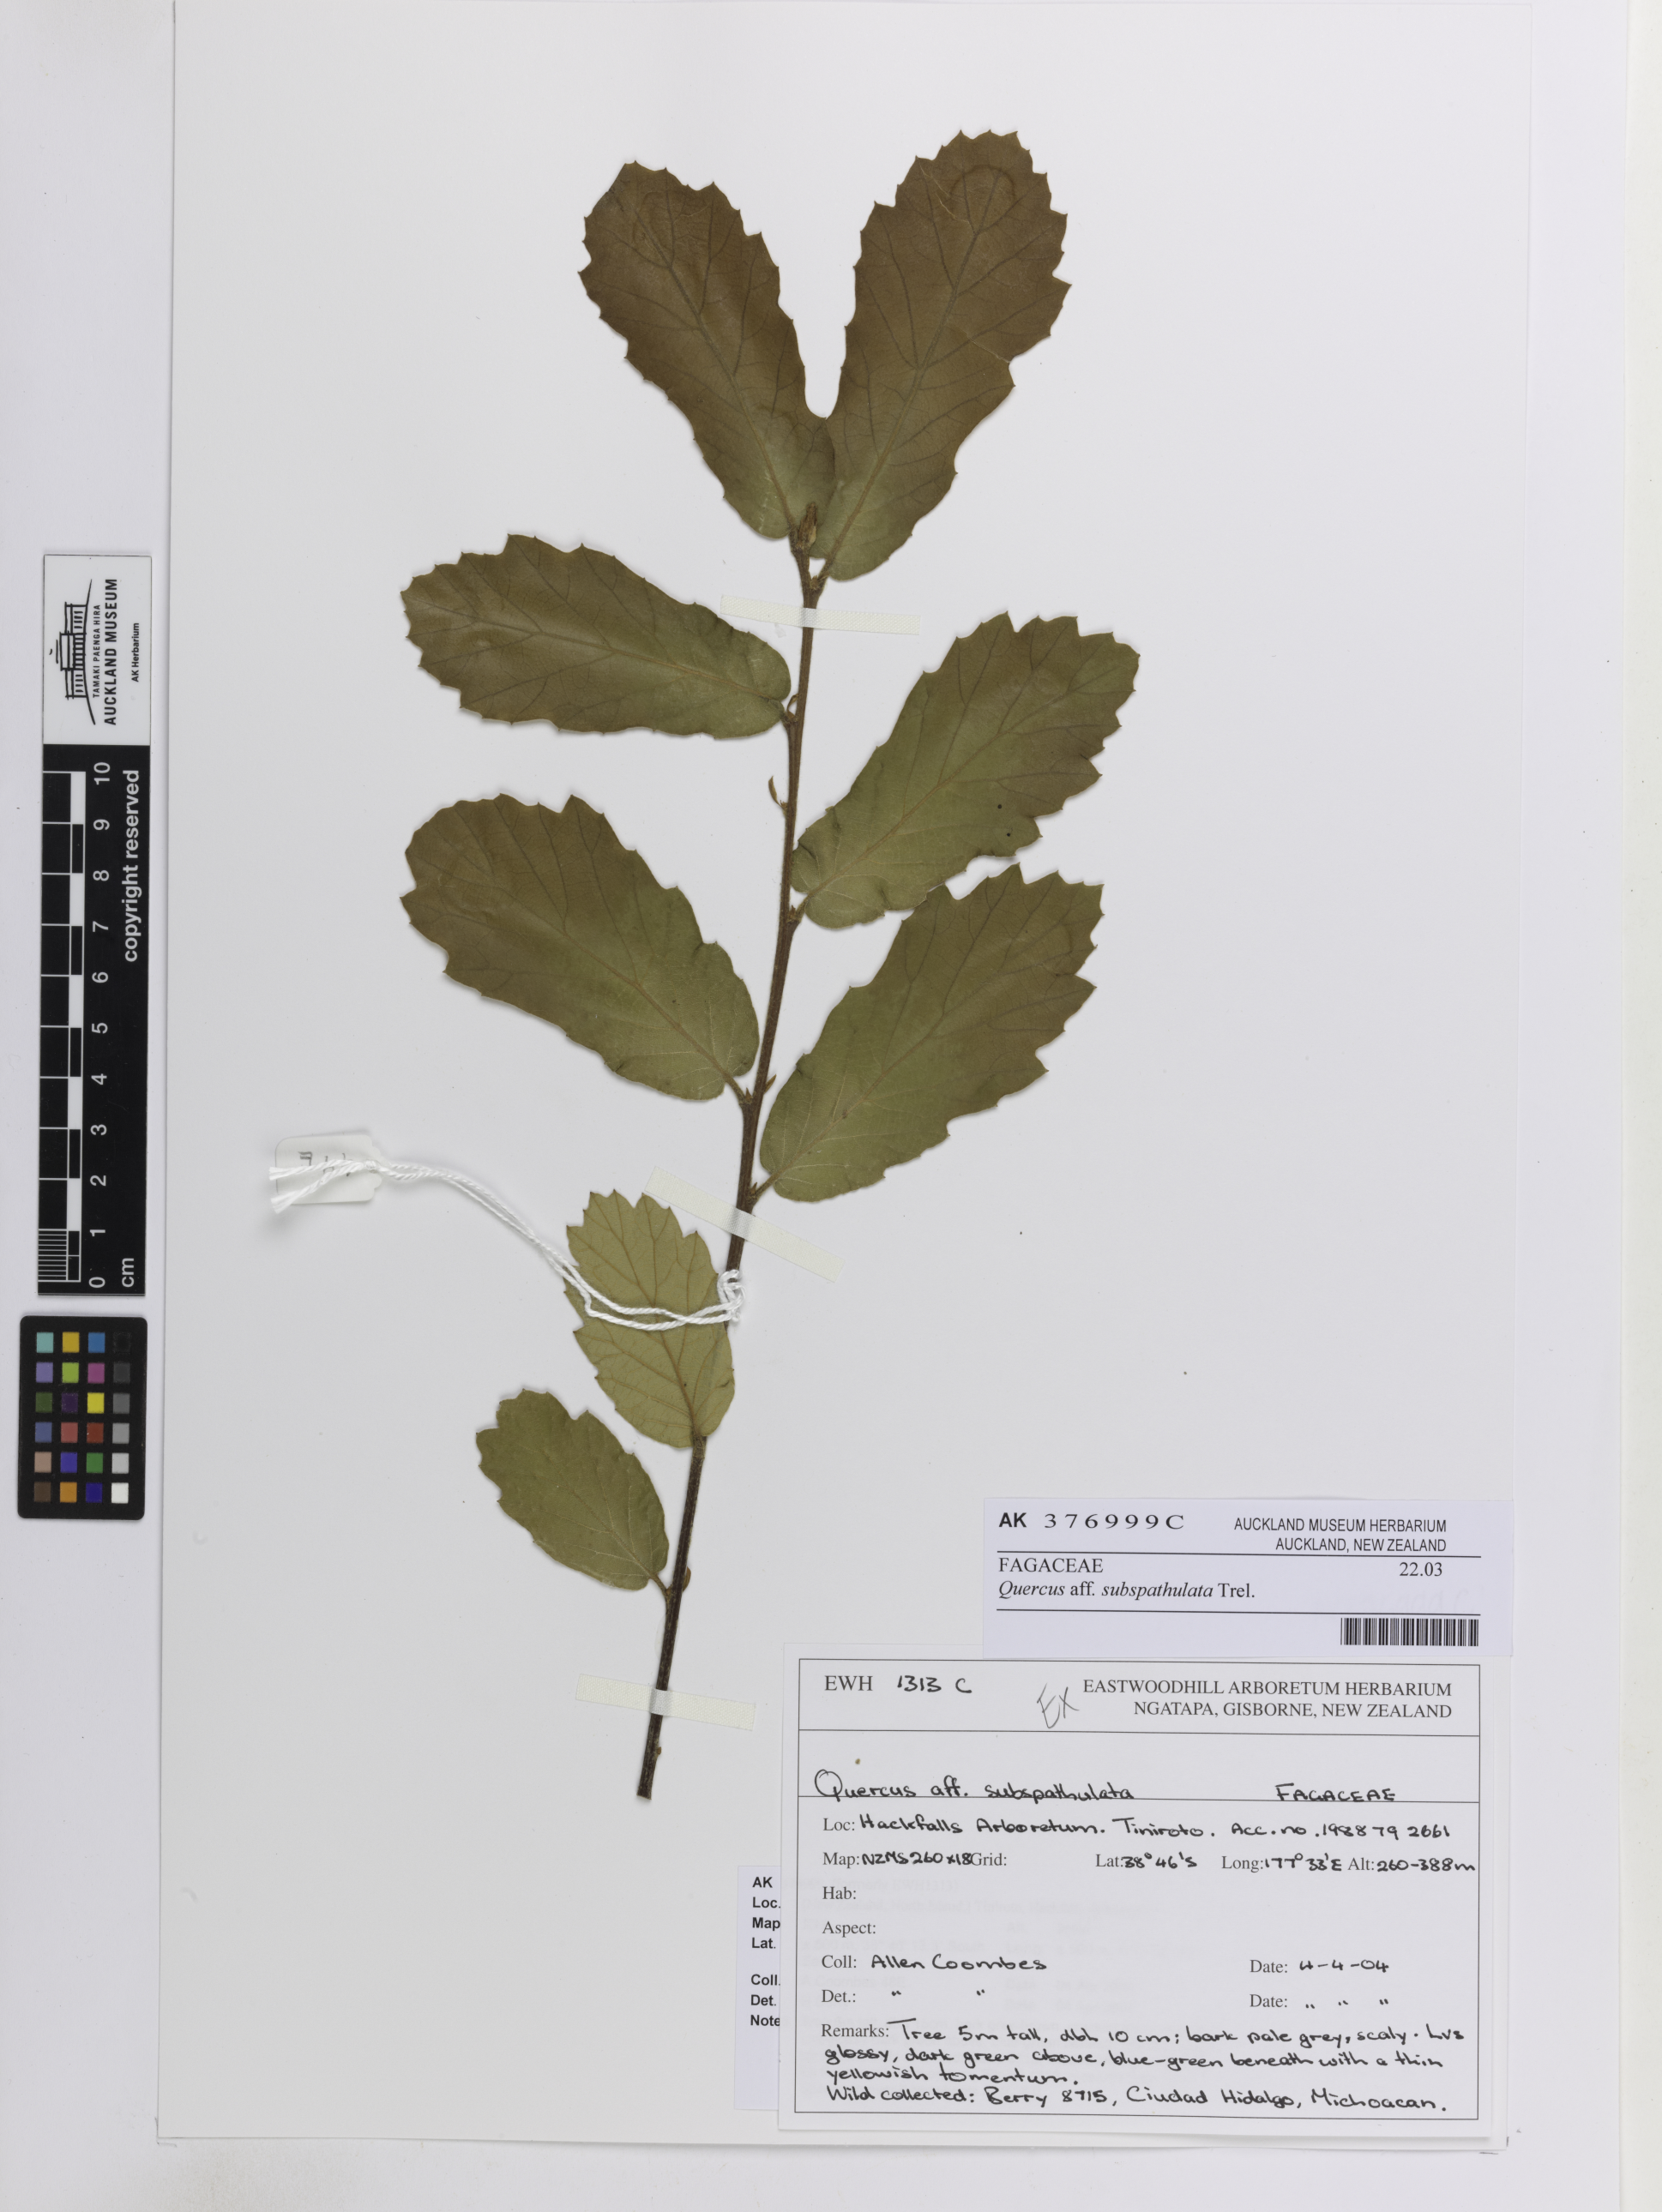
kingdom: Plantae
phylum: Tracheophyta
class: Magnoliopsida
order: Fagales
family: Fagaceae
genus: Quercus
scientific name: Quercus subspathulata
